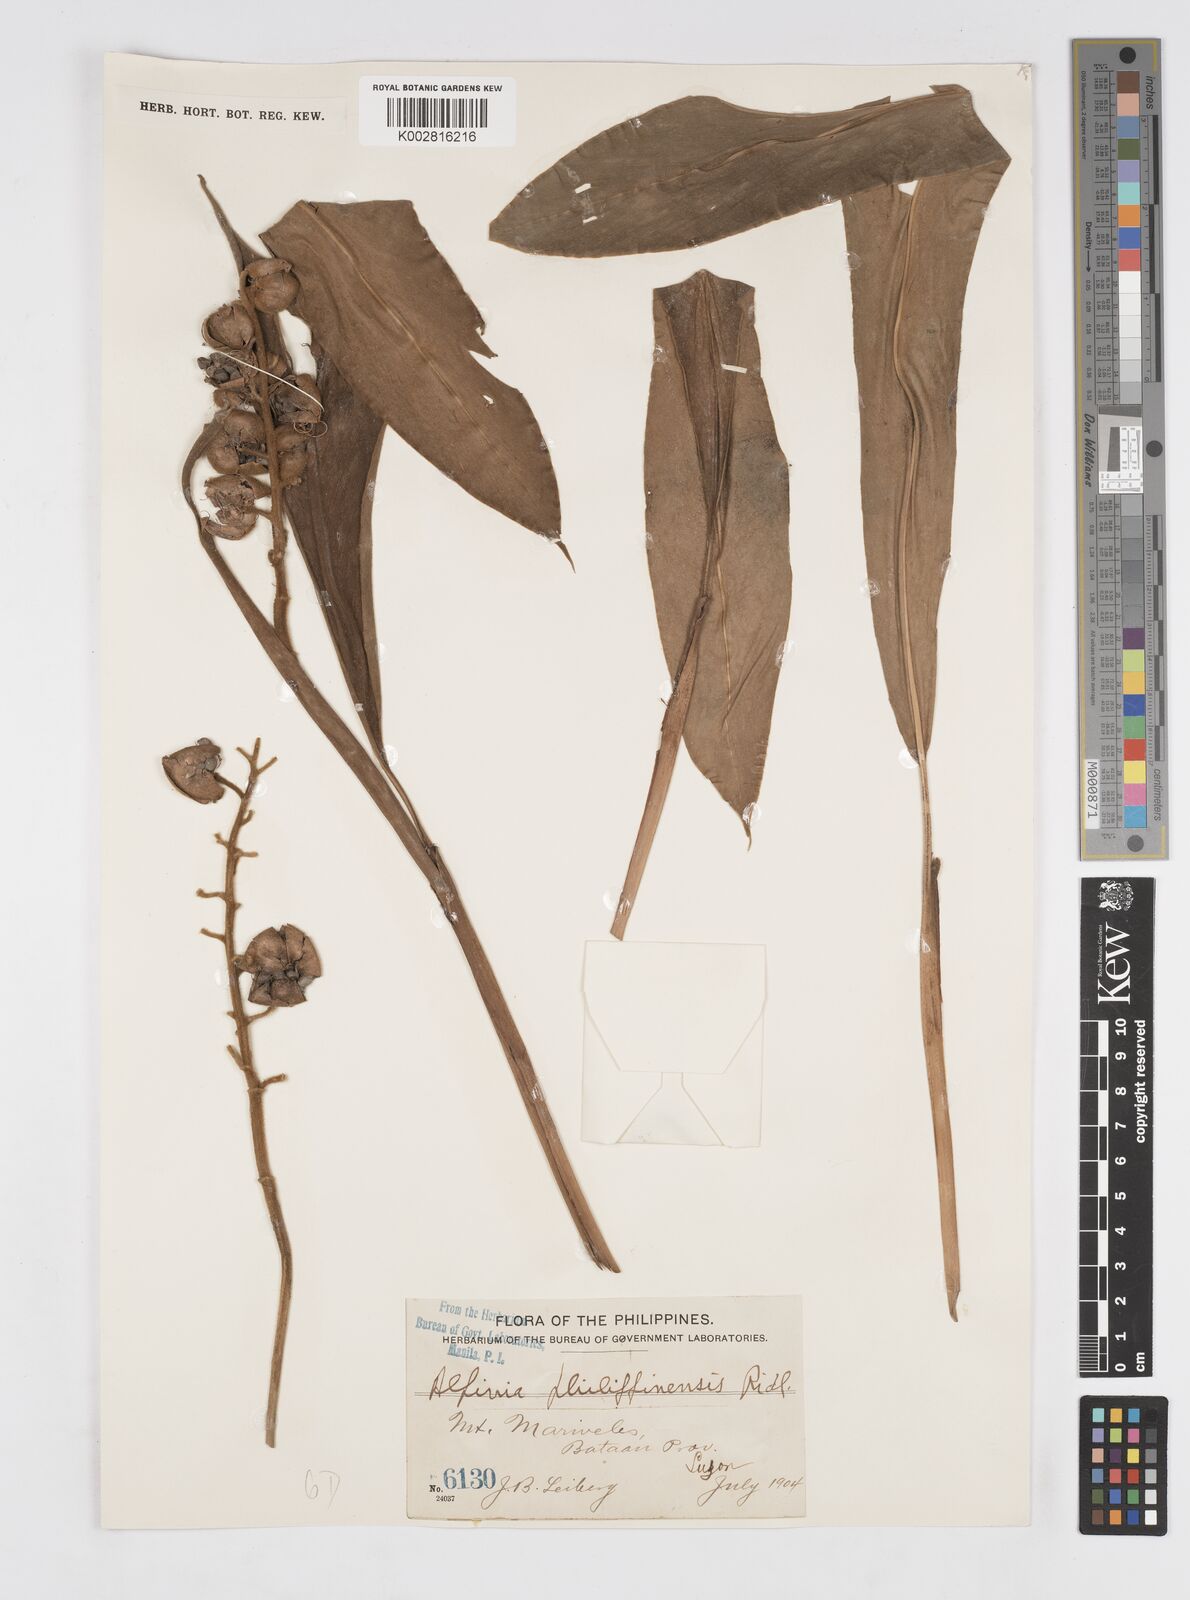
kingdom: Plantae
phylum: Tracheophyta
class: Liliopsida
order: Zingiberales
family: Zingiberaceae
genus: Alpinia
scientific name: Alpinia haenkei
